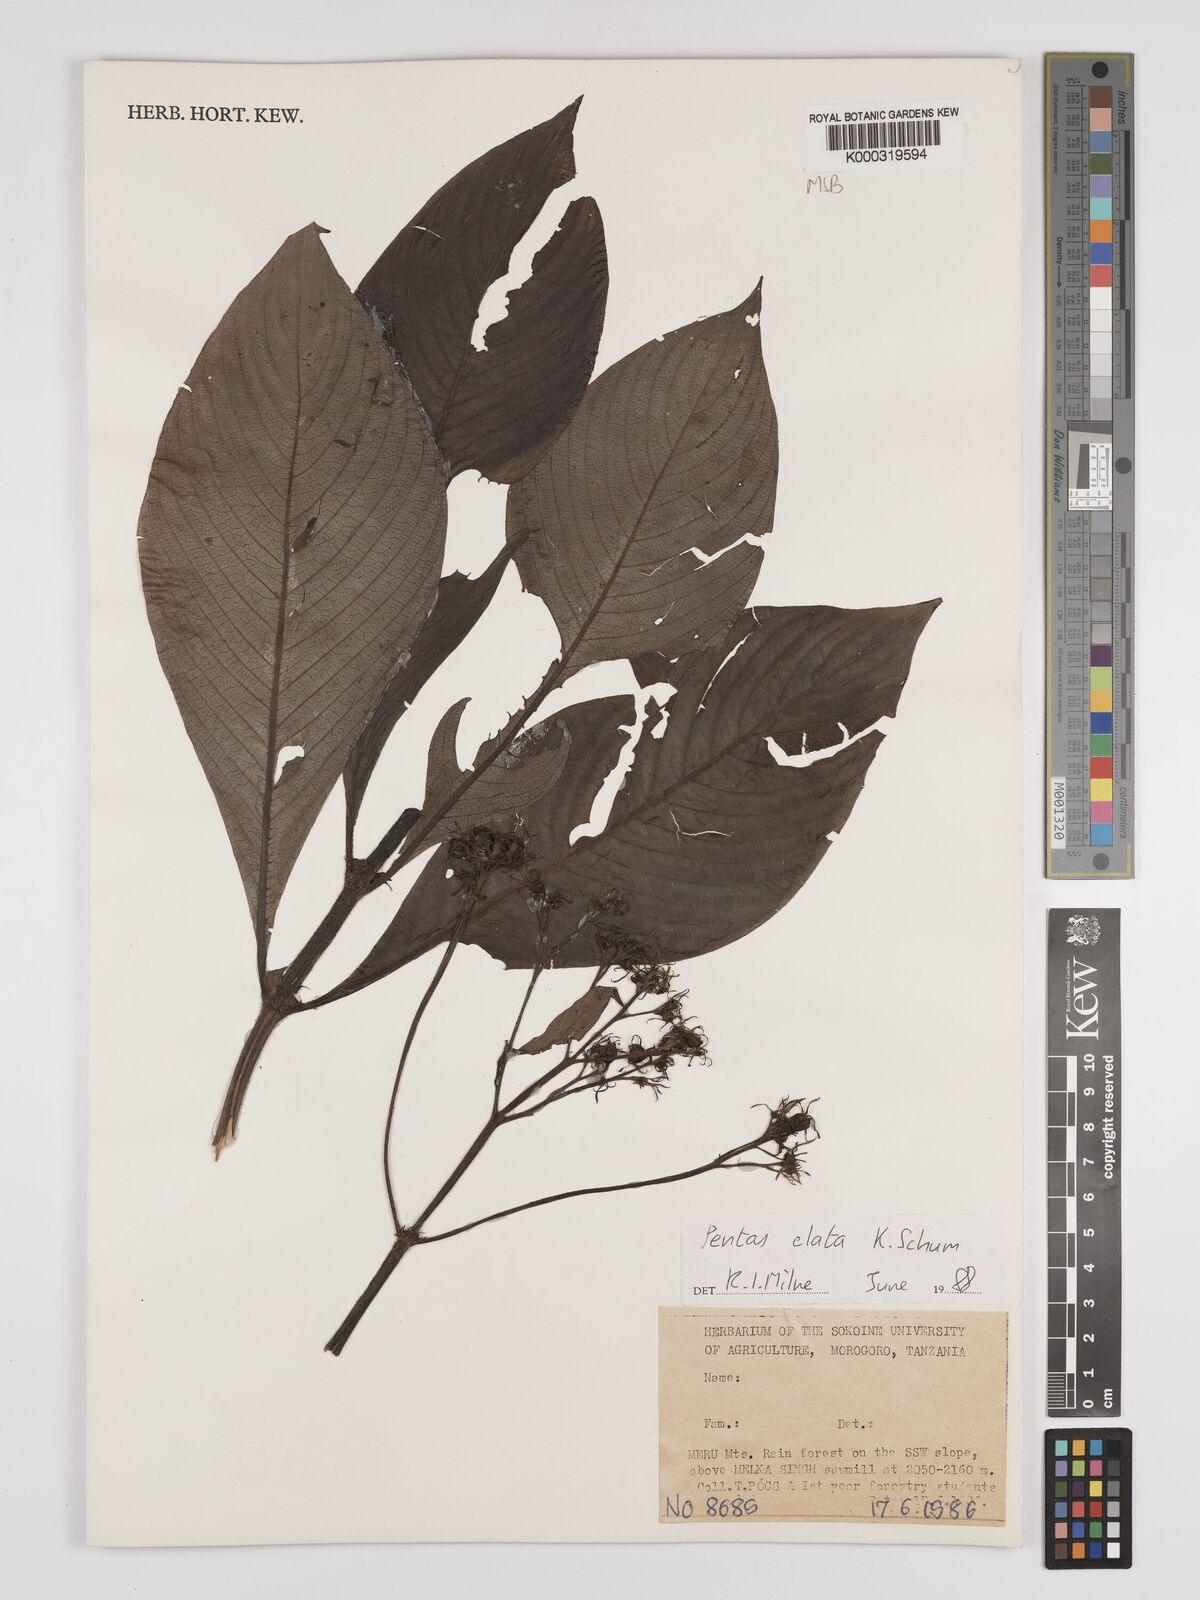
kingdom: Plantae
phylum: Tracheophyta
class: Magnoliopsida
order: Gentianales
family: Rubiaceae
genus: Phyllopentas
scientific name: Phyllopentas elata
